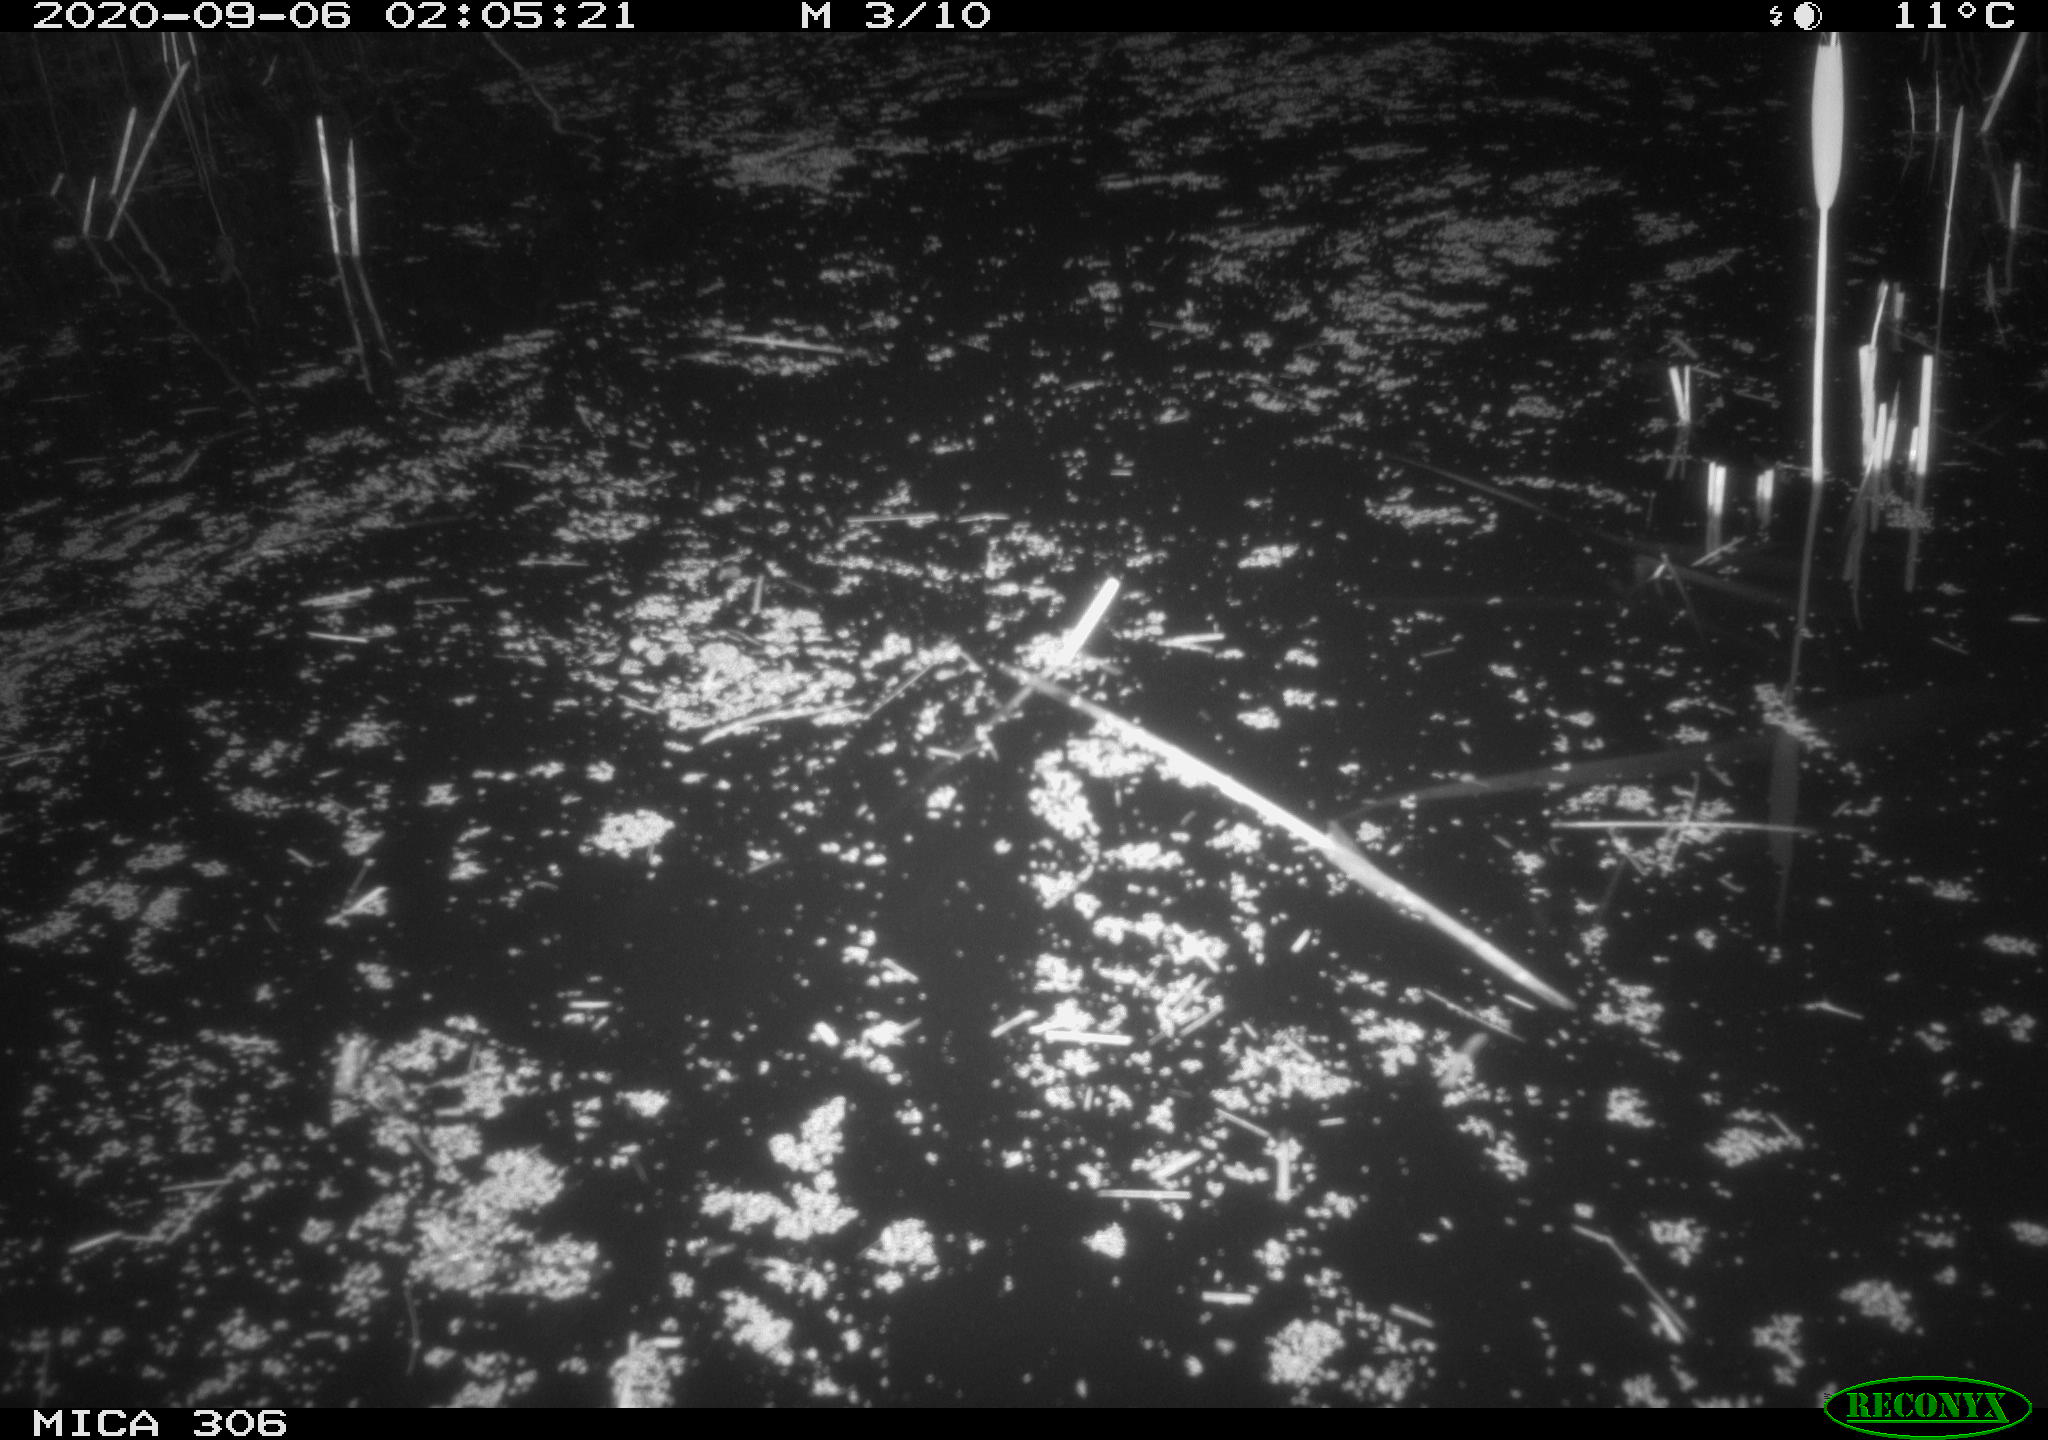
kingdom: Animalia
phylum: Chordata
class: Mammalia
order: Rodentia
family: Muridae
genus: Rattus
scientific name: Rattus norvegicus
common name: Brown rat
